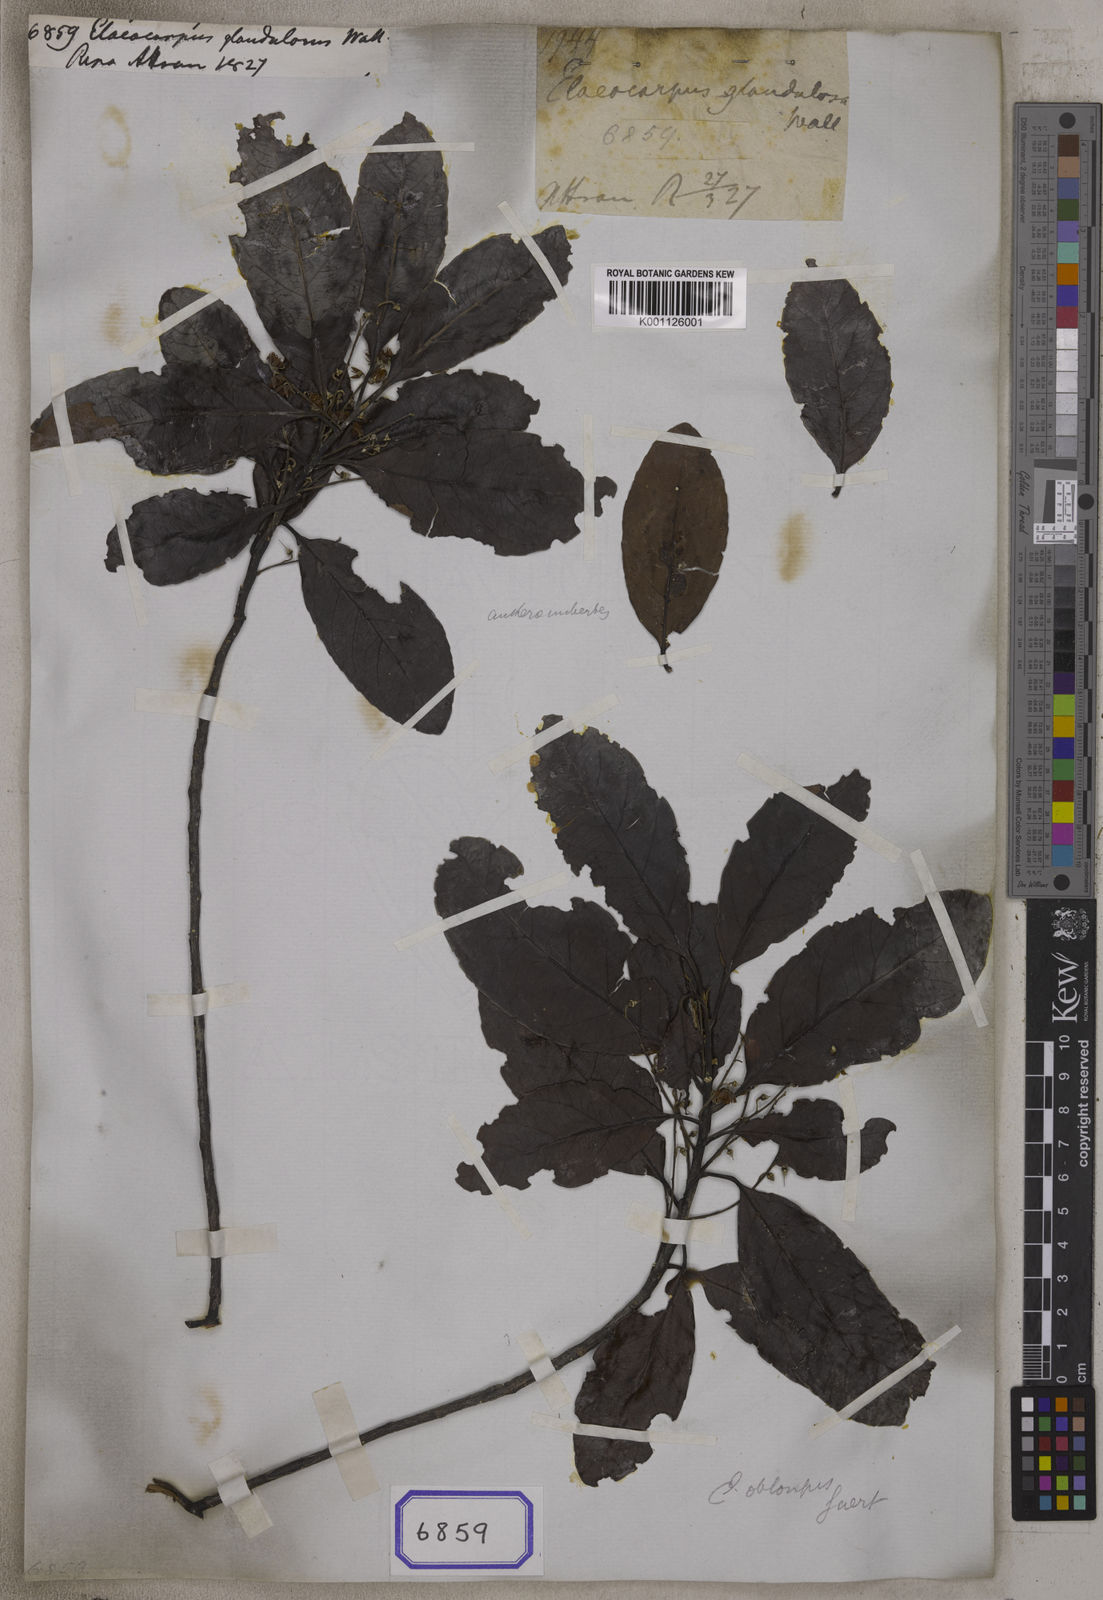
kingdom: Plantae
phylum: Tracheophyta
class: Magnoliopsida
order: Oxalidales
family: Elaeocarpaceae
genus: Elaeocarpus
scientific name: Elaeocarpus
